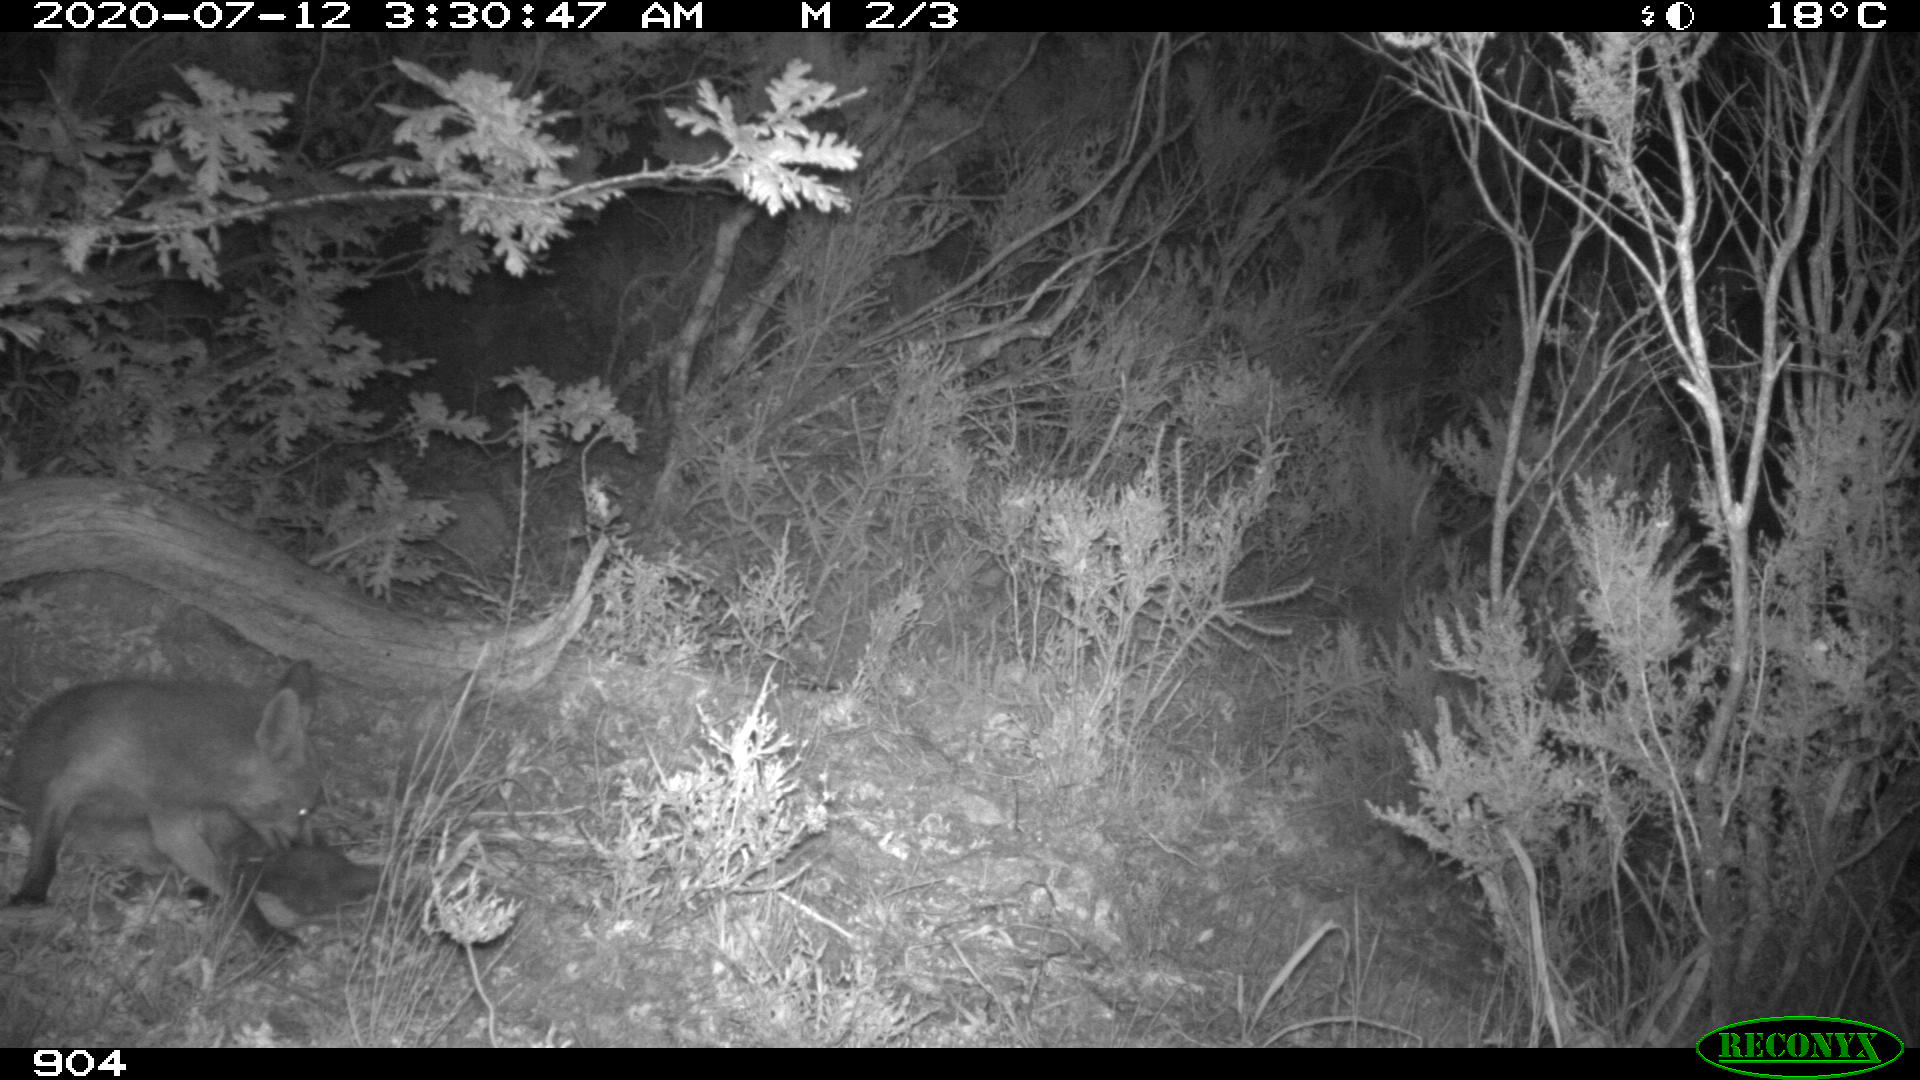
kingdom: Animalia
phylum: Chordata
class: Mammalia
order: Carnivora
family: Canidae
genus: Vulpes
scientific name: Vulpes vulpes
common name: Red fox
